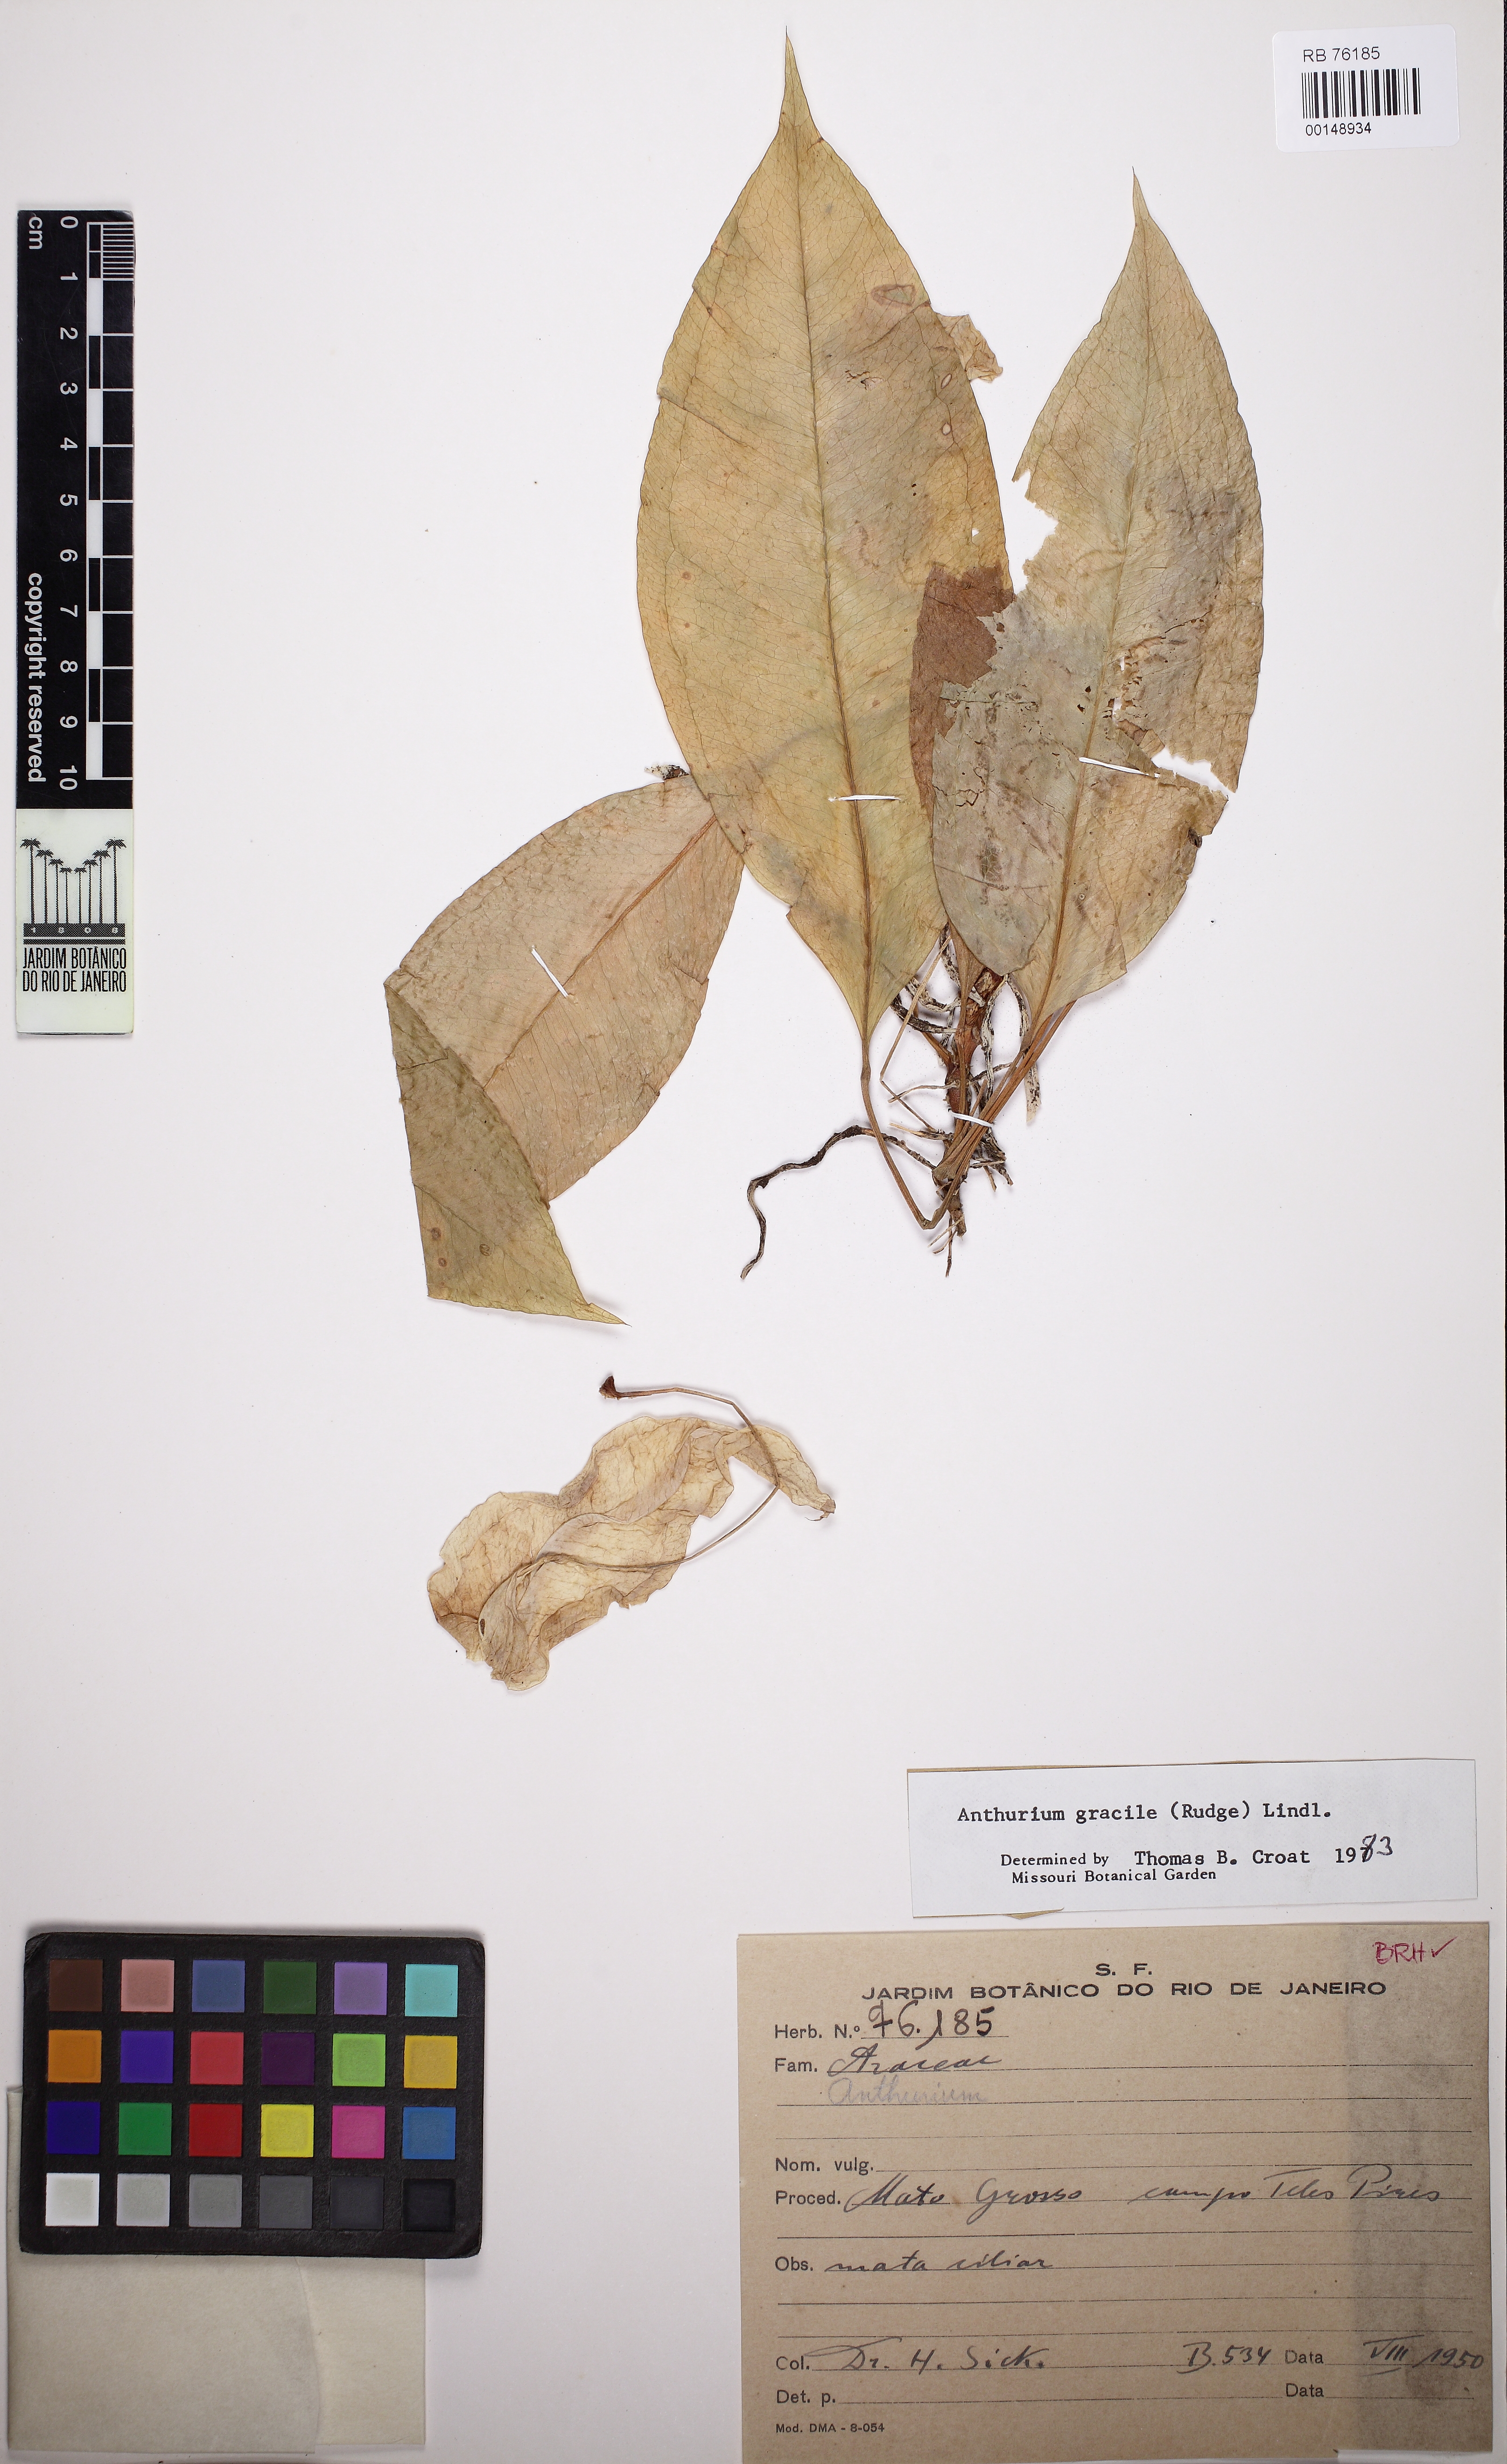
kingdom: Plantae
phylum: Tracheophyta
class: Liliopsida
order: Alismatales
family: Araceae
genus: Anthurium
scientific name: Anthurium gracile
